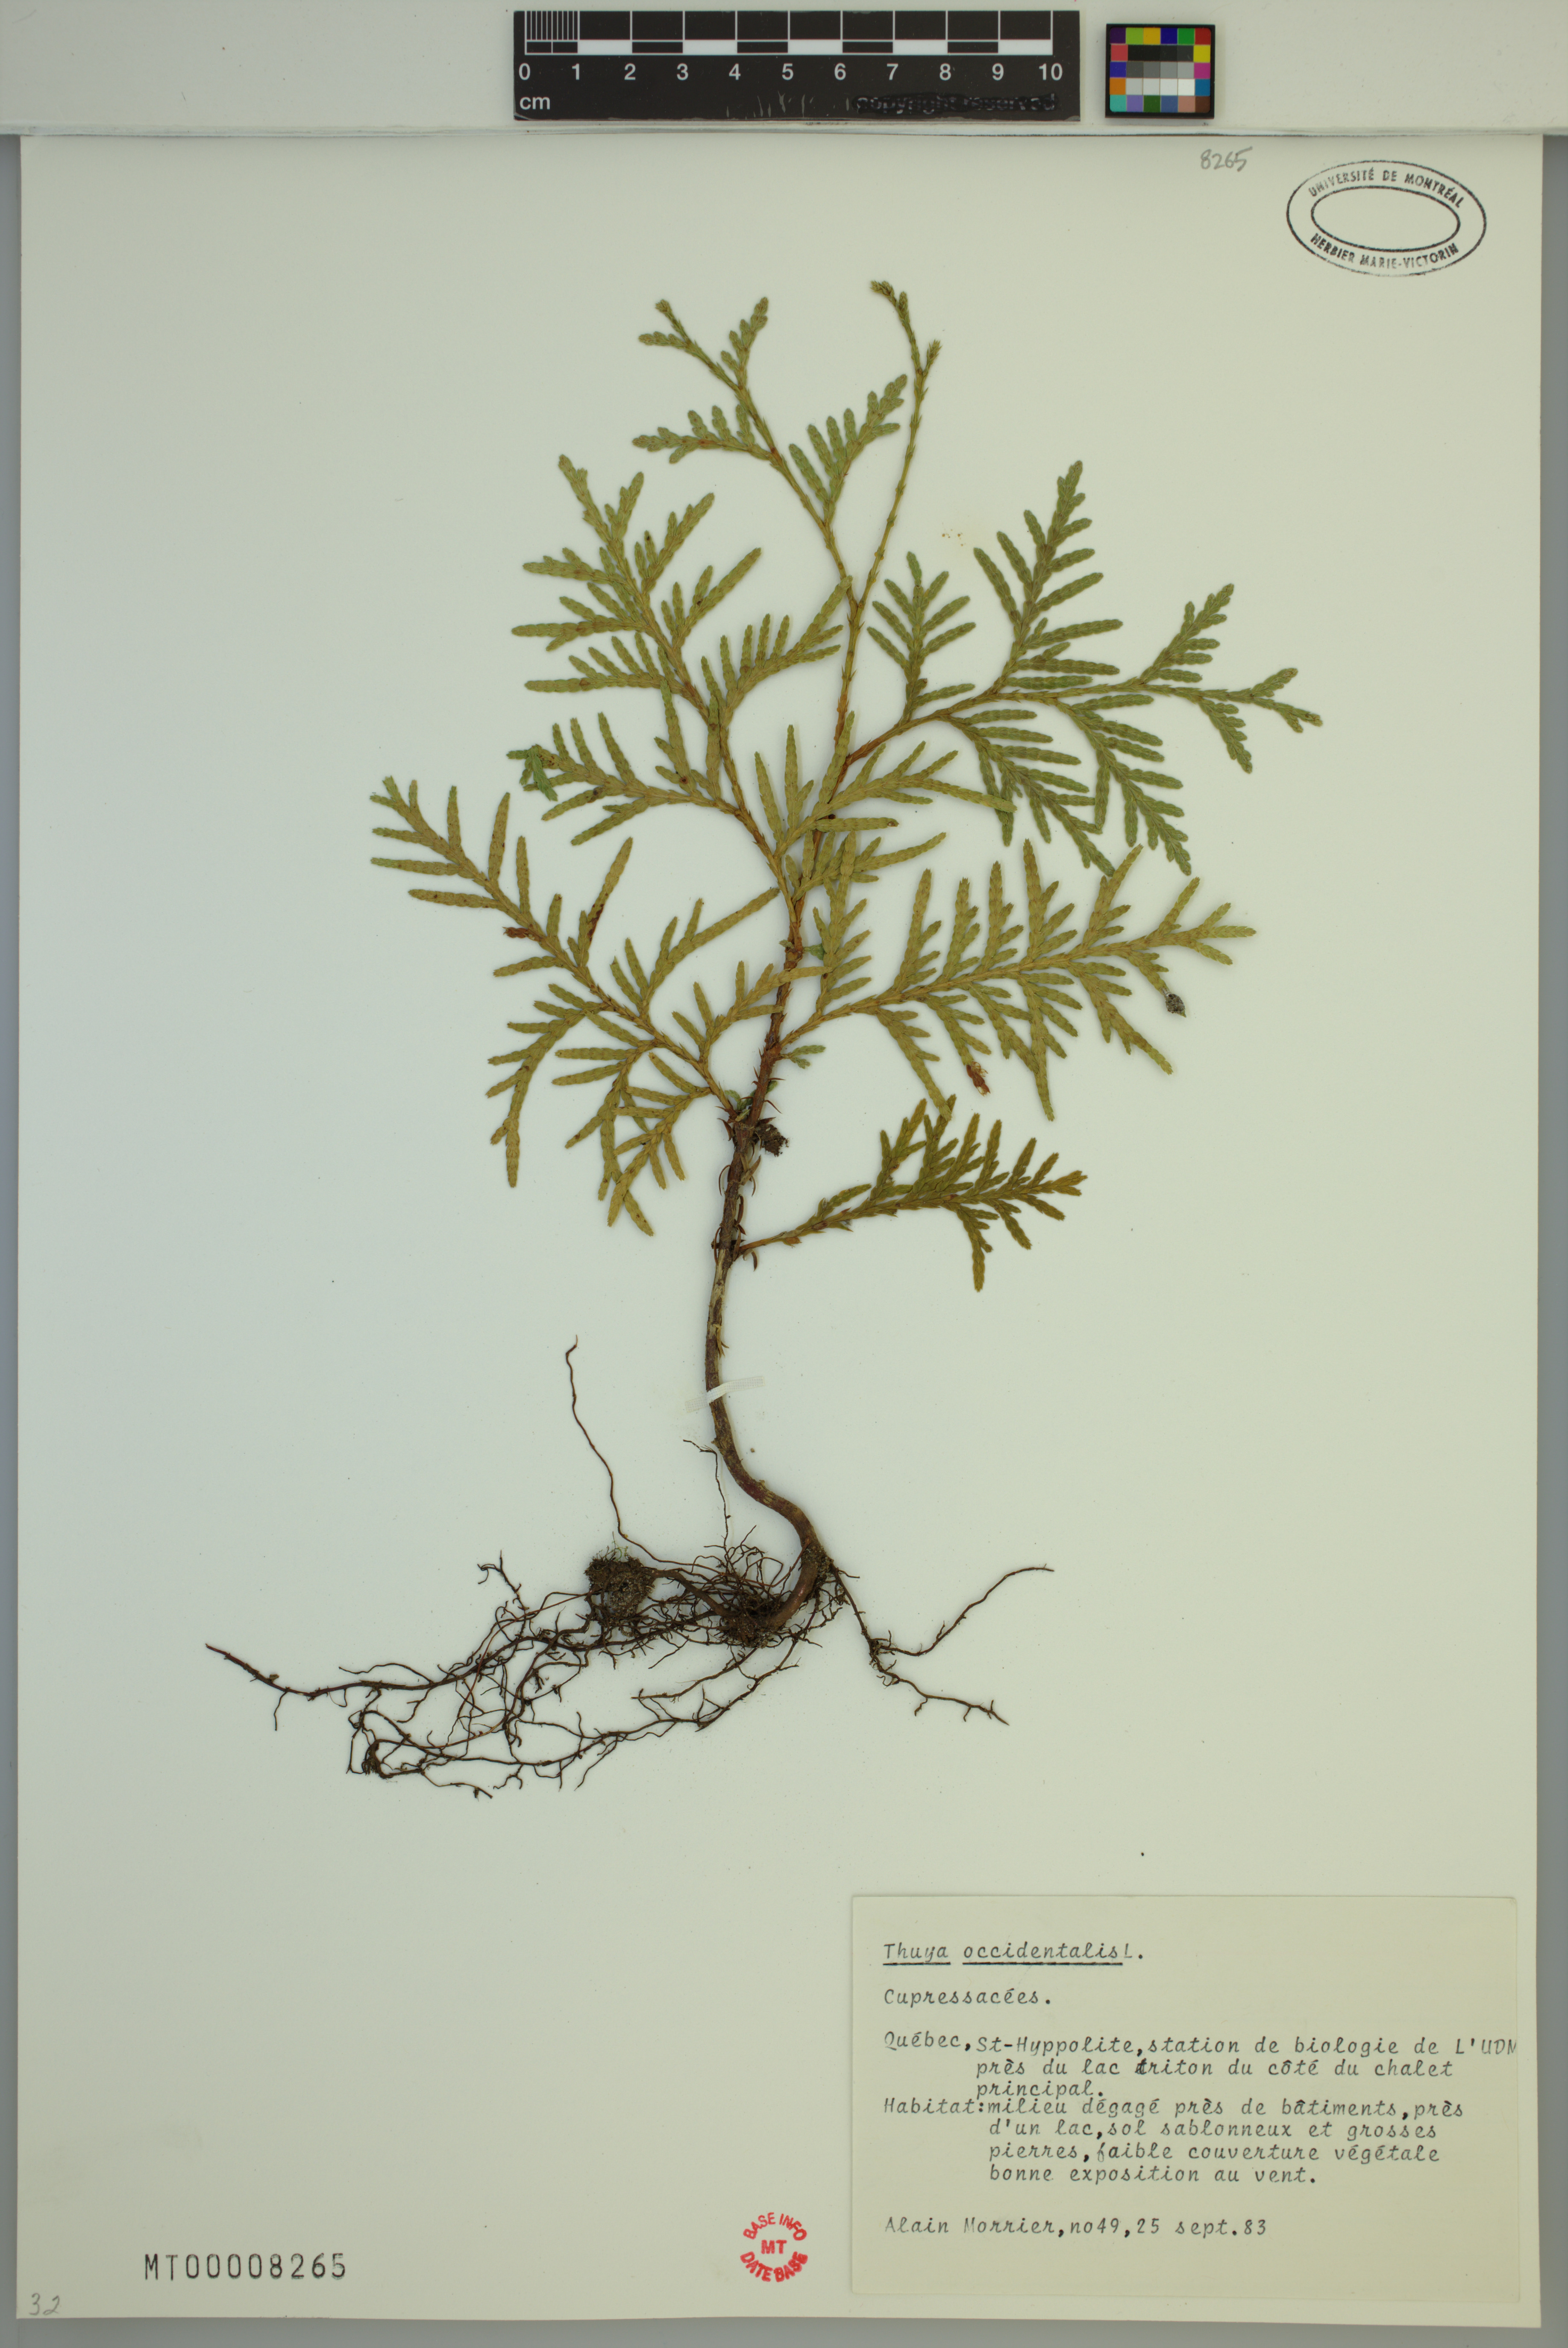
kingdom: Plantae
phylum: Tracheophyta
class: Pinopsida
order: Pinales
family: Cupressaceae
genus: Thuja
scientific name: Thuja occidentalis
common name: Northern white-cedar
